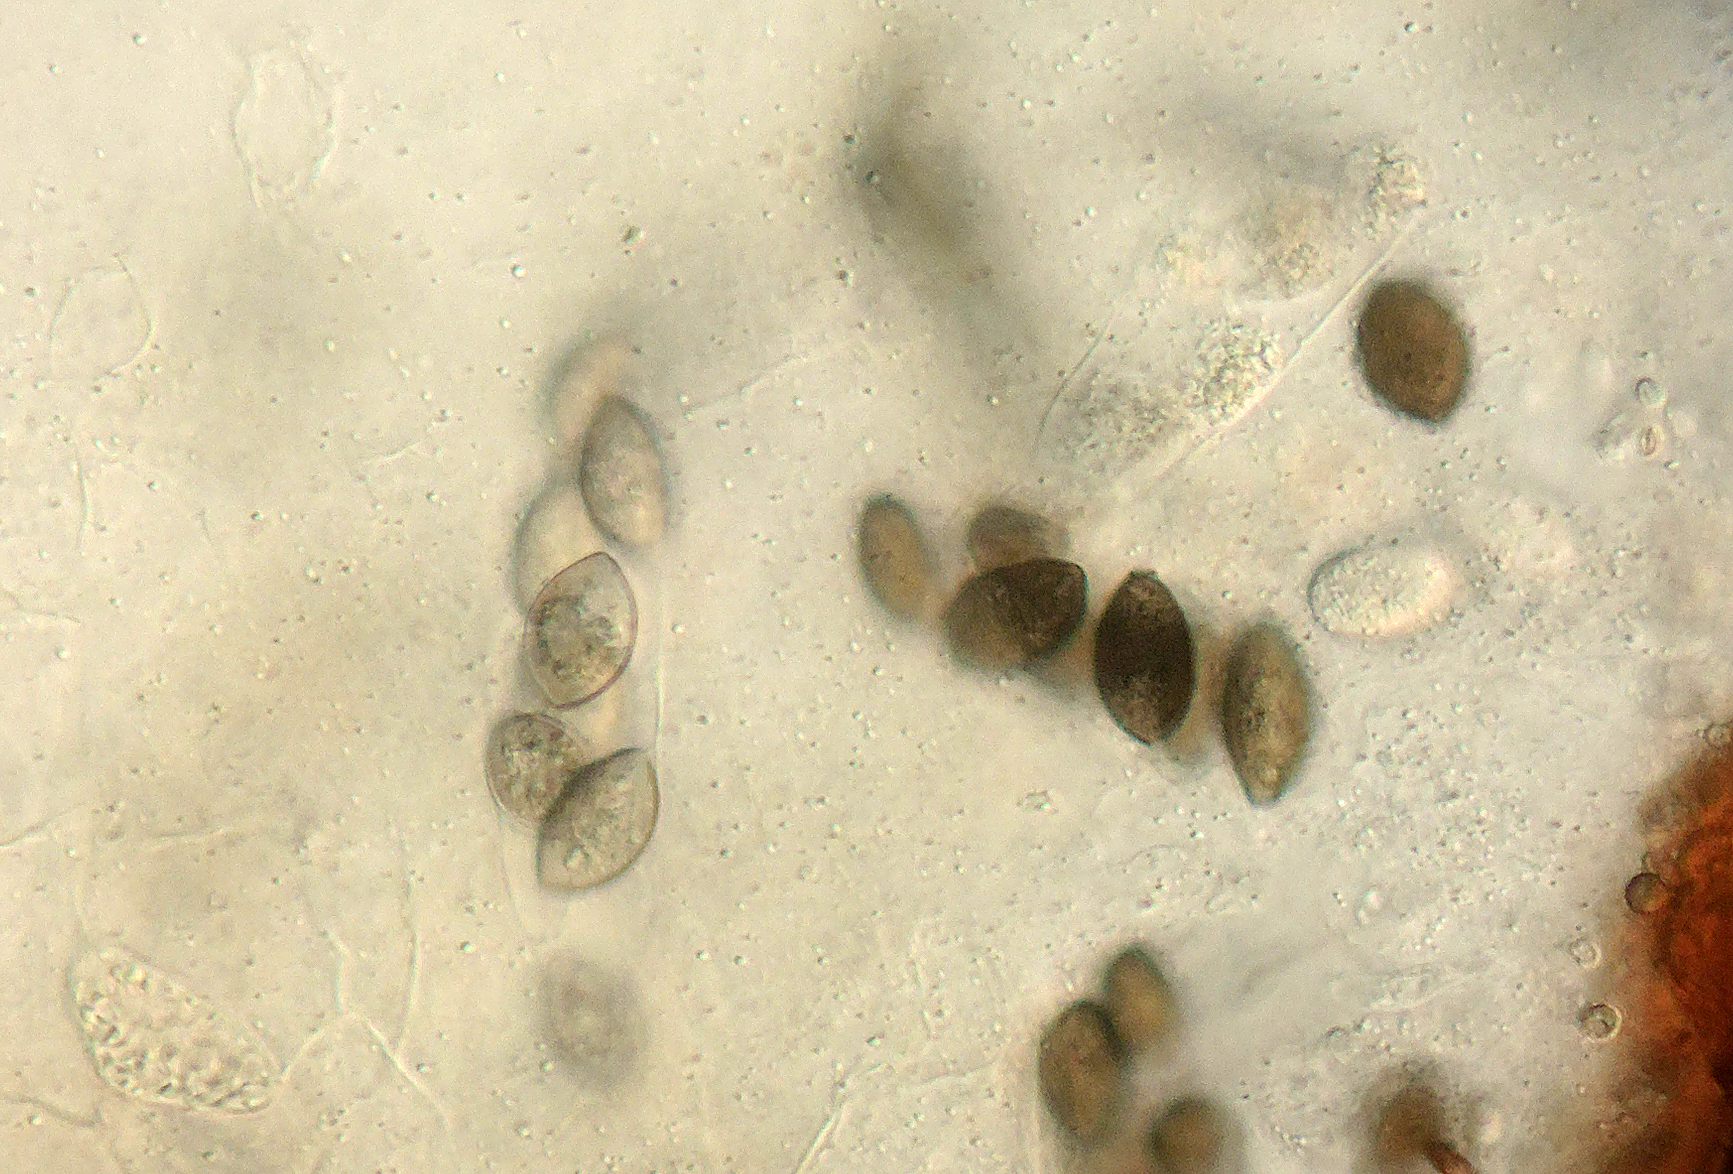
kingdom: Fungi
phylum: Ascomycota
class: Sordariomycetes
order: Melanosporales
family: Ceratostomataceae
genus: Melanospora
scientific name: Melanospora caprina
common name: frynsesvamp-næbkerne
